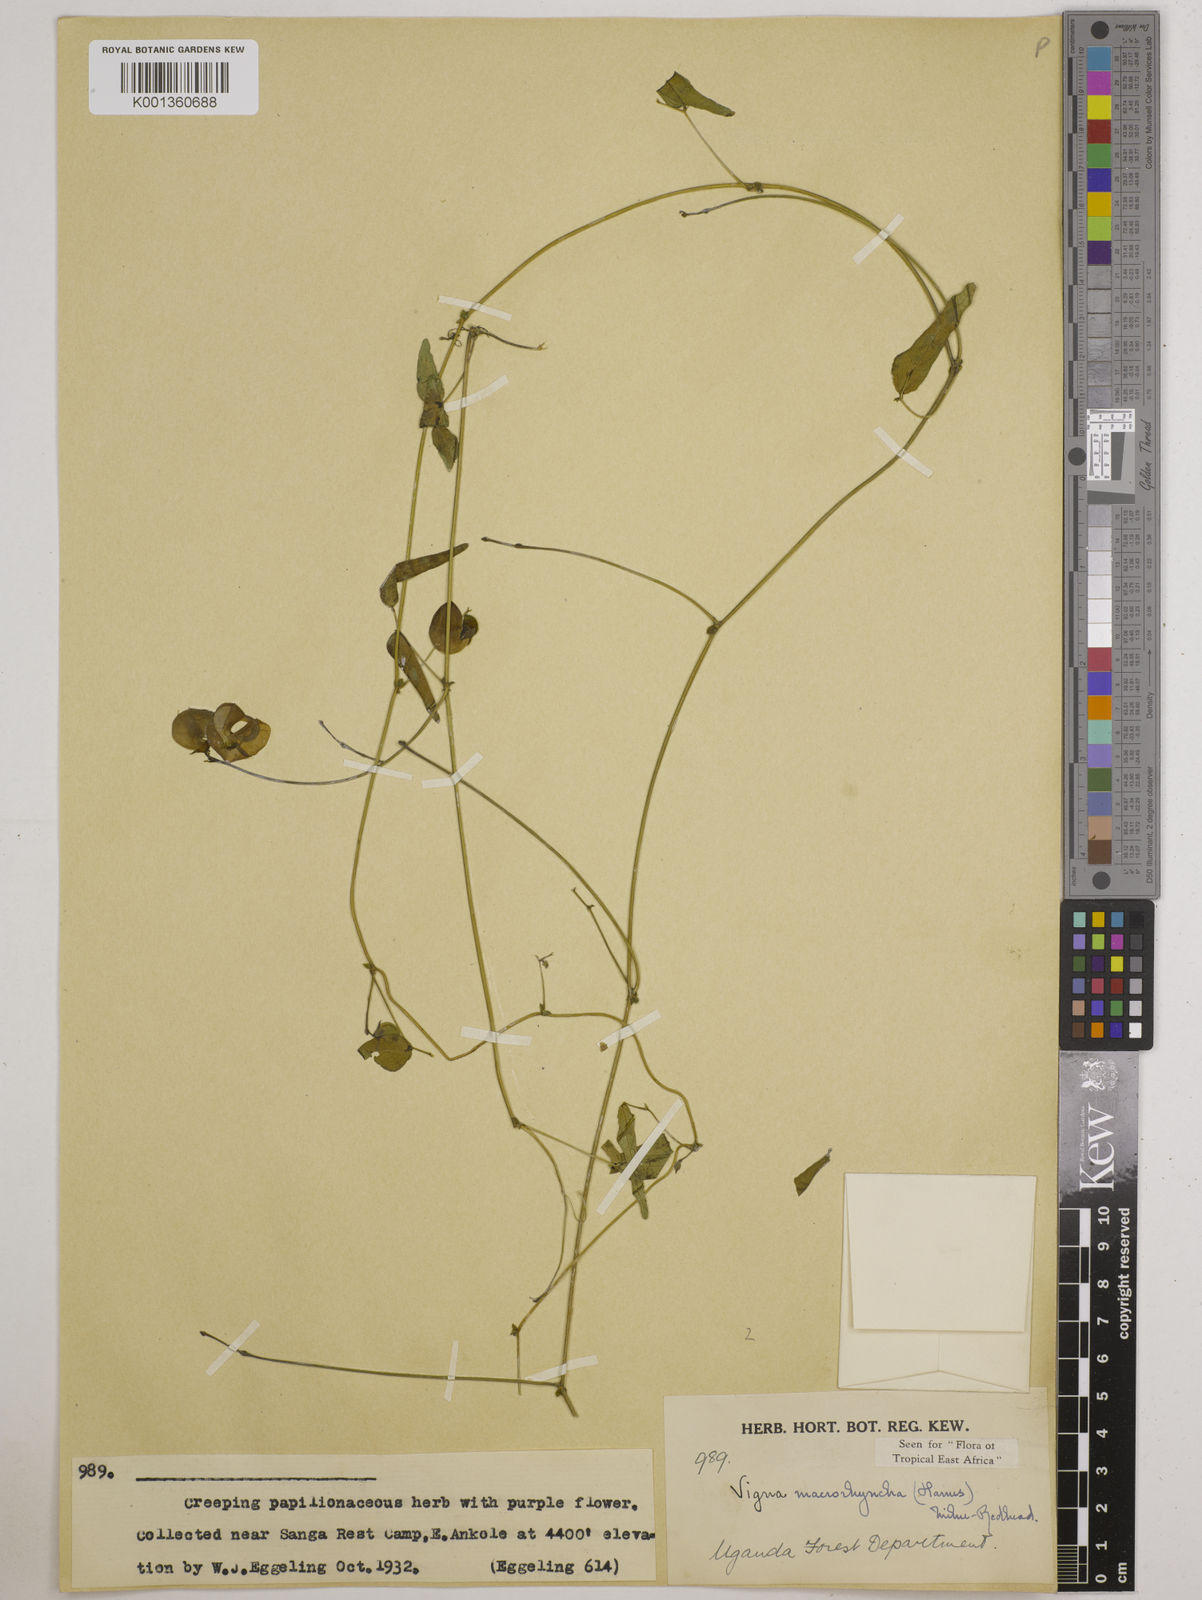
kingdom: Plantae
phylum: Tracheophyta
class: Magnoliopsida
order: Fabales
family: Fabaceae
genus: Wajira
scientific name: Wajira grahamiana
